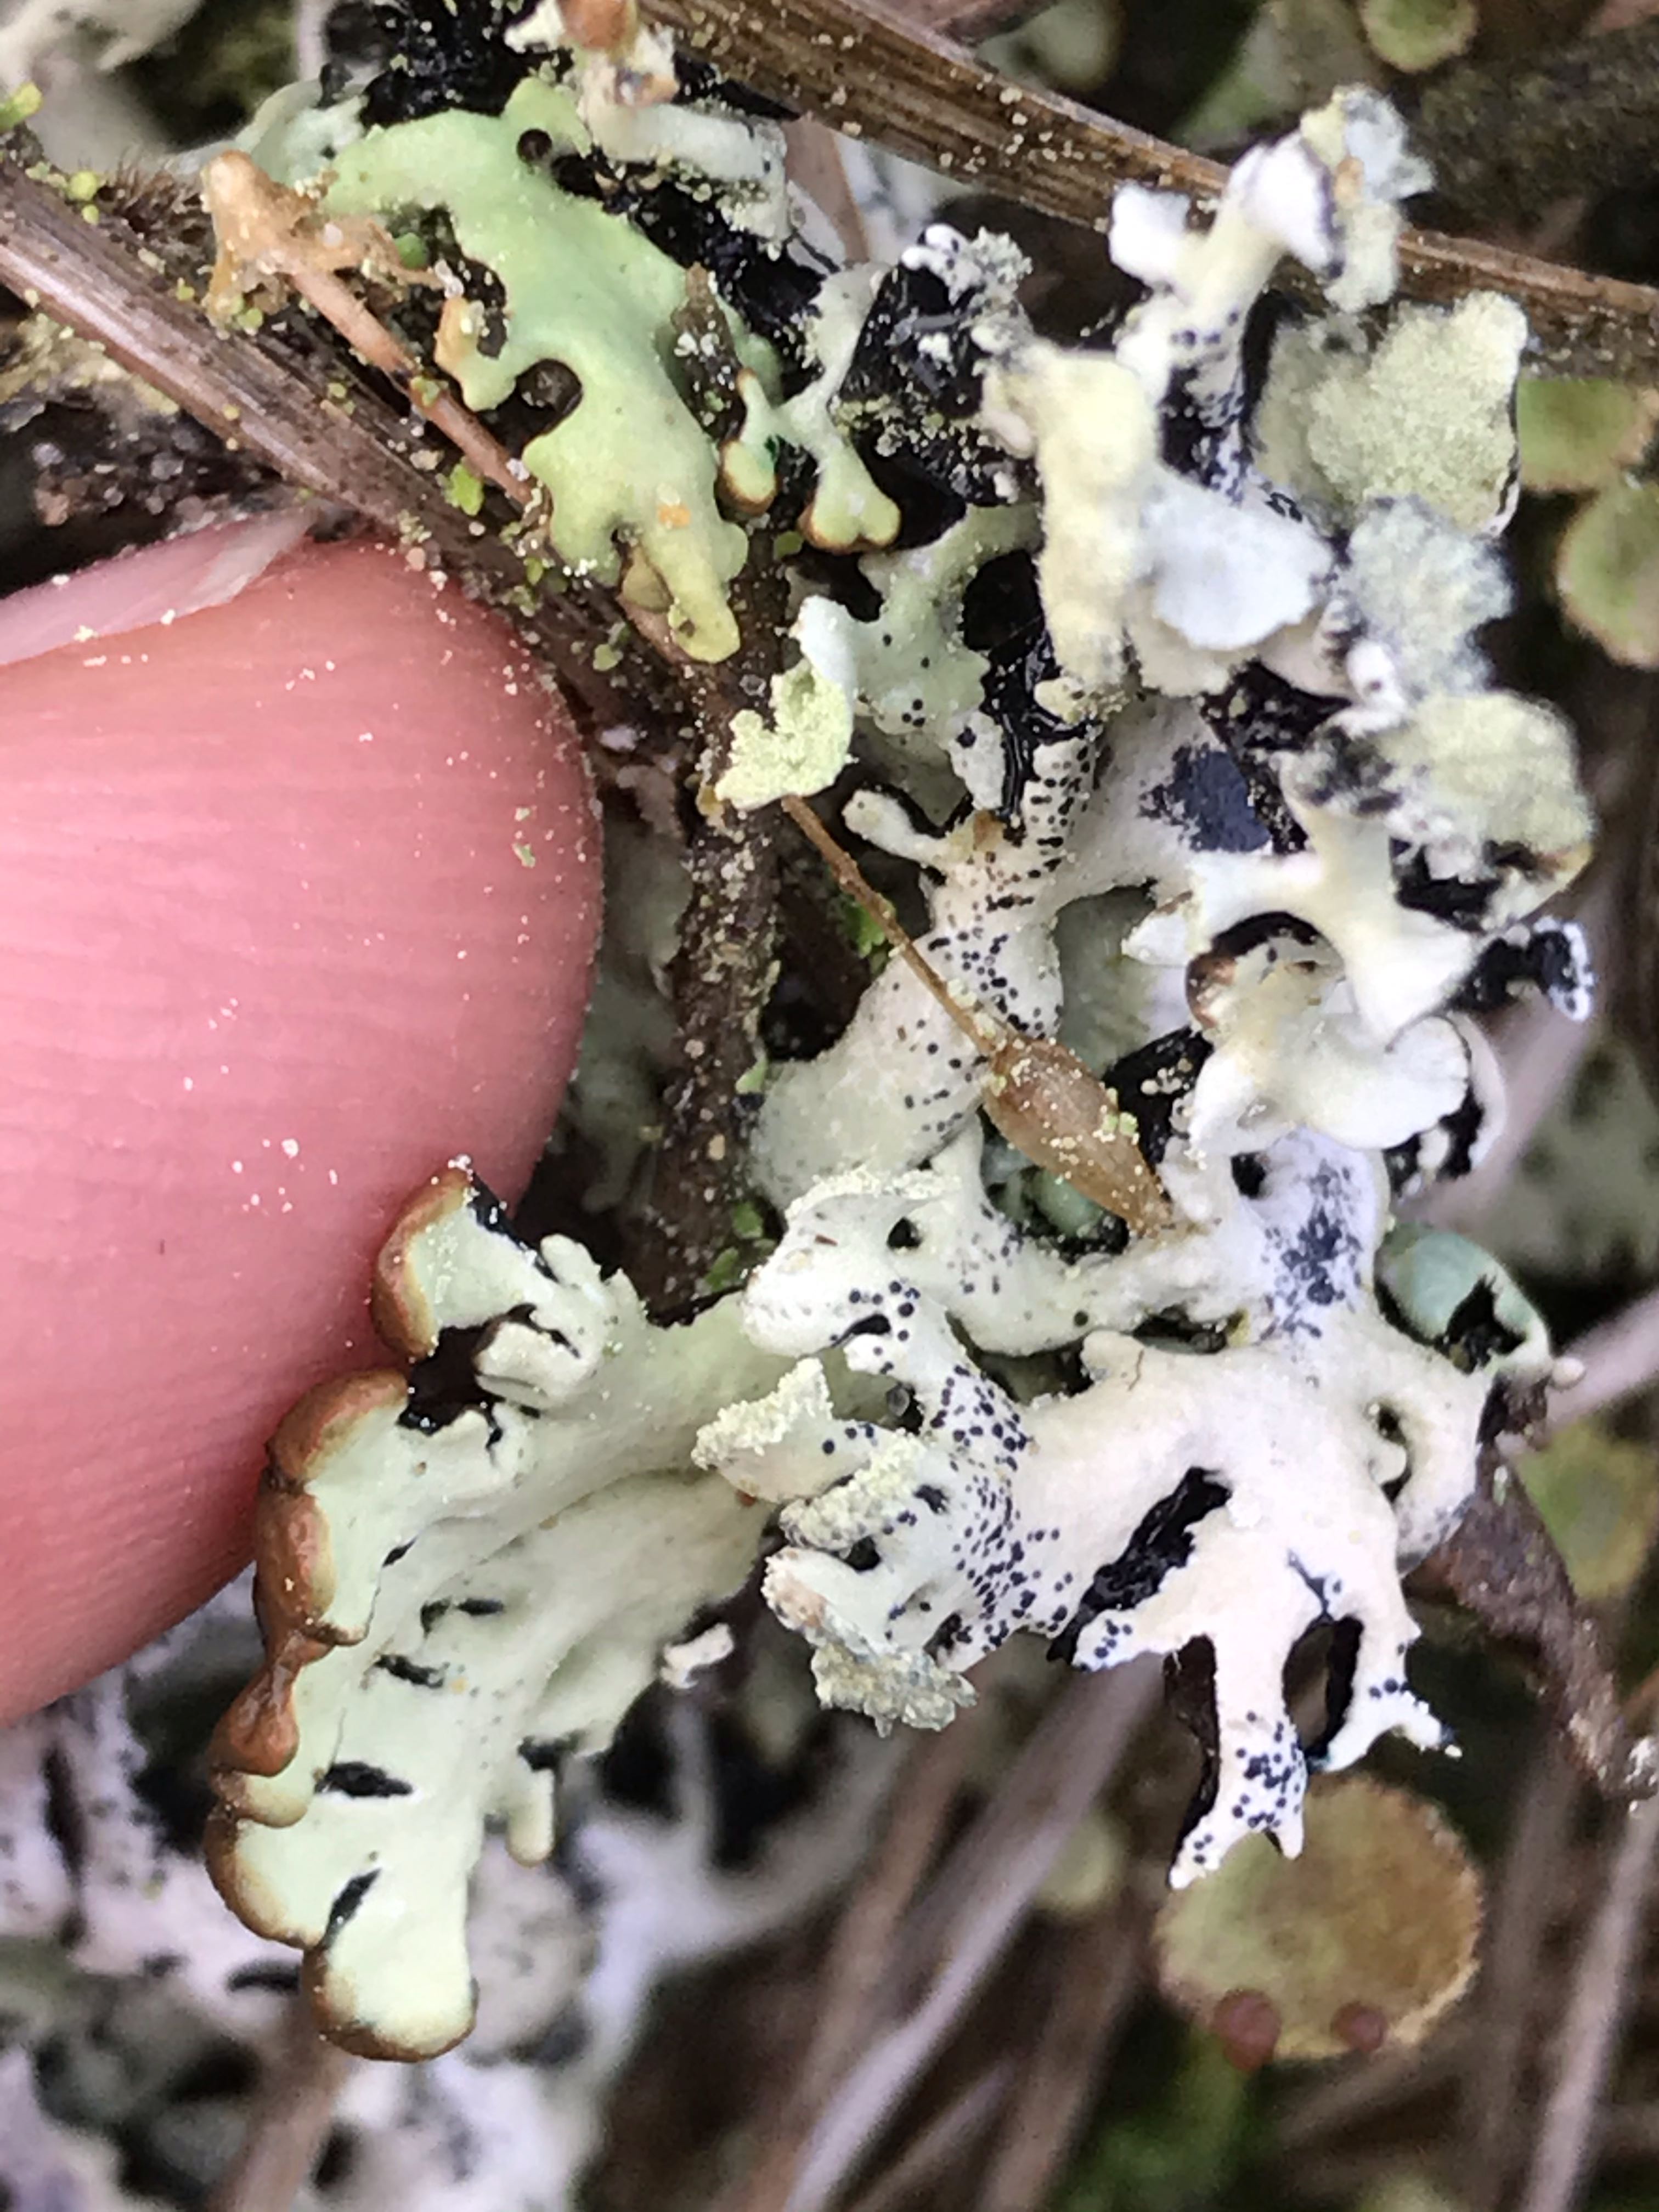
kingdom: Fungi
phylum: Ascomycota
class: Lecanoromycetes
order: Lecanorales
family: Parmeliaceae
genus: Hypogymnia
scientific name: Hypogymnia physodes
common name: almindelig kvistlav
